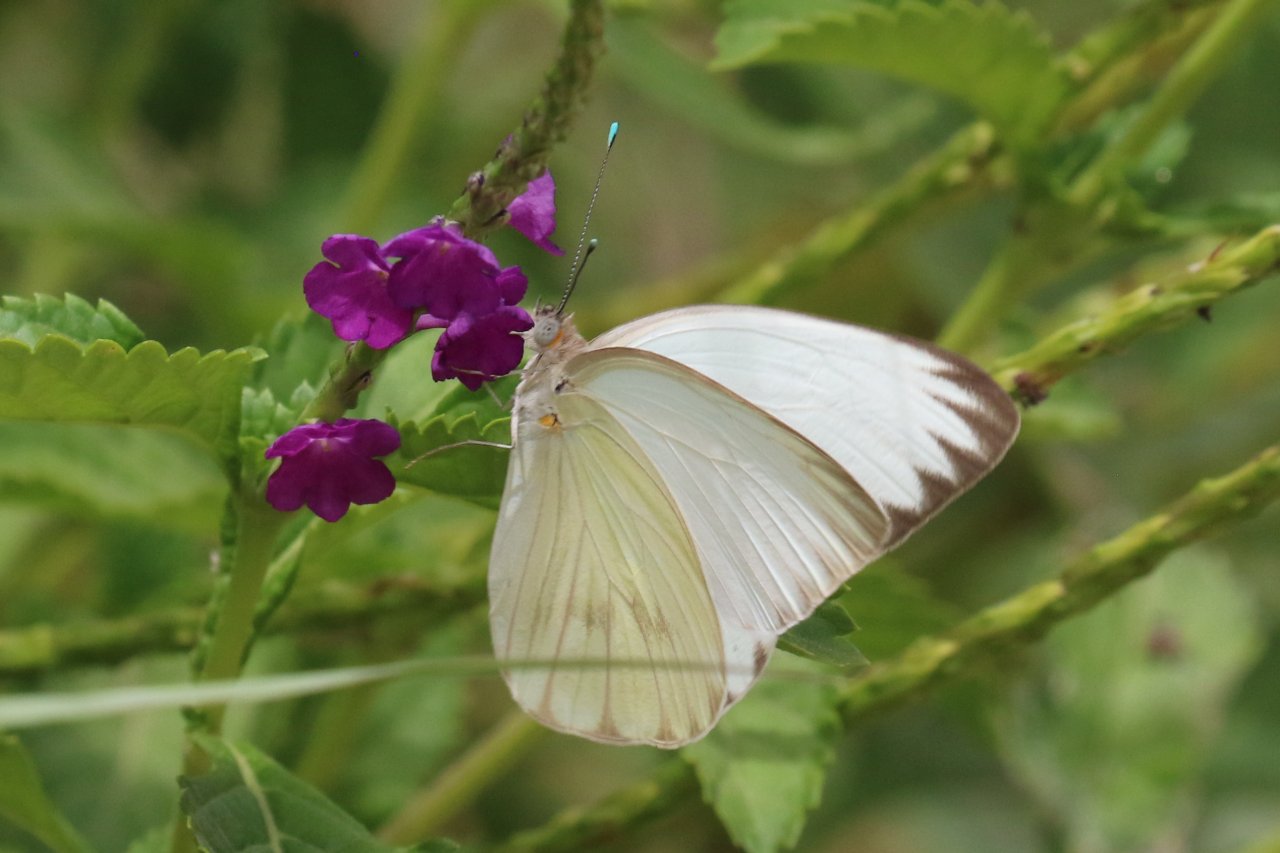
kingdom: Animalia
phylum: Arthropoda
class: Insecta
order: Lepidoptera
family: Pieridae
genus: Ascia
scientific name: Ascia monuste
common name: Great Southern White
